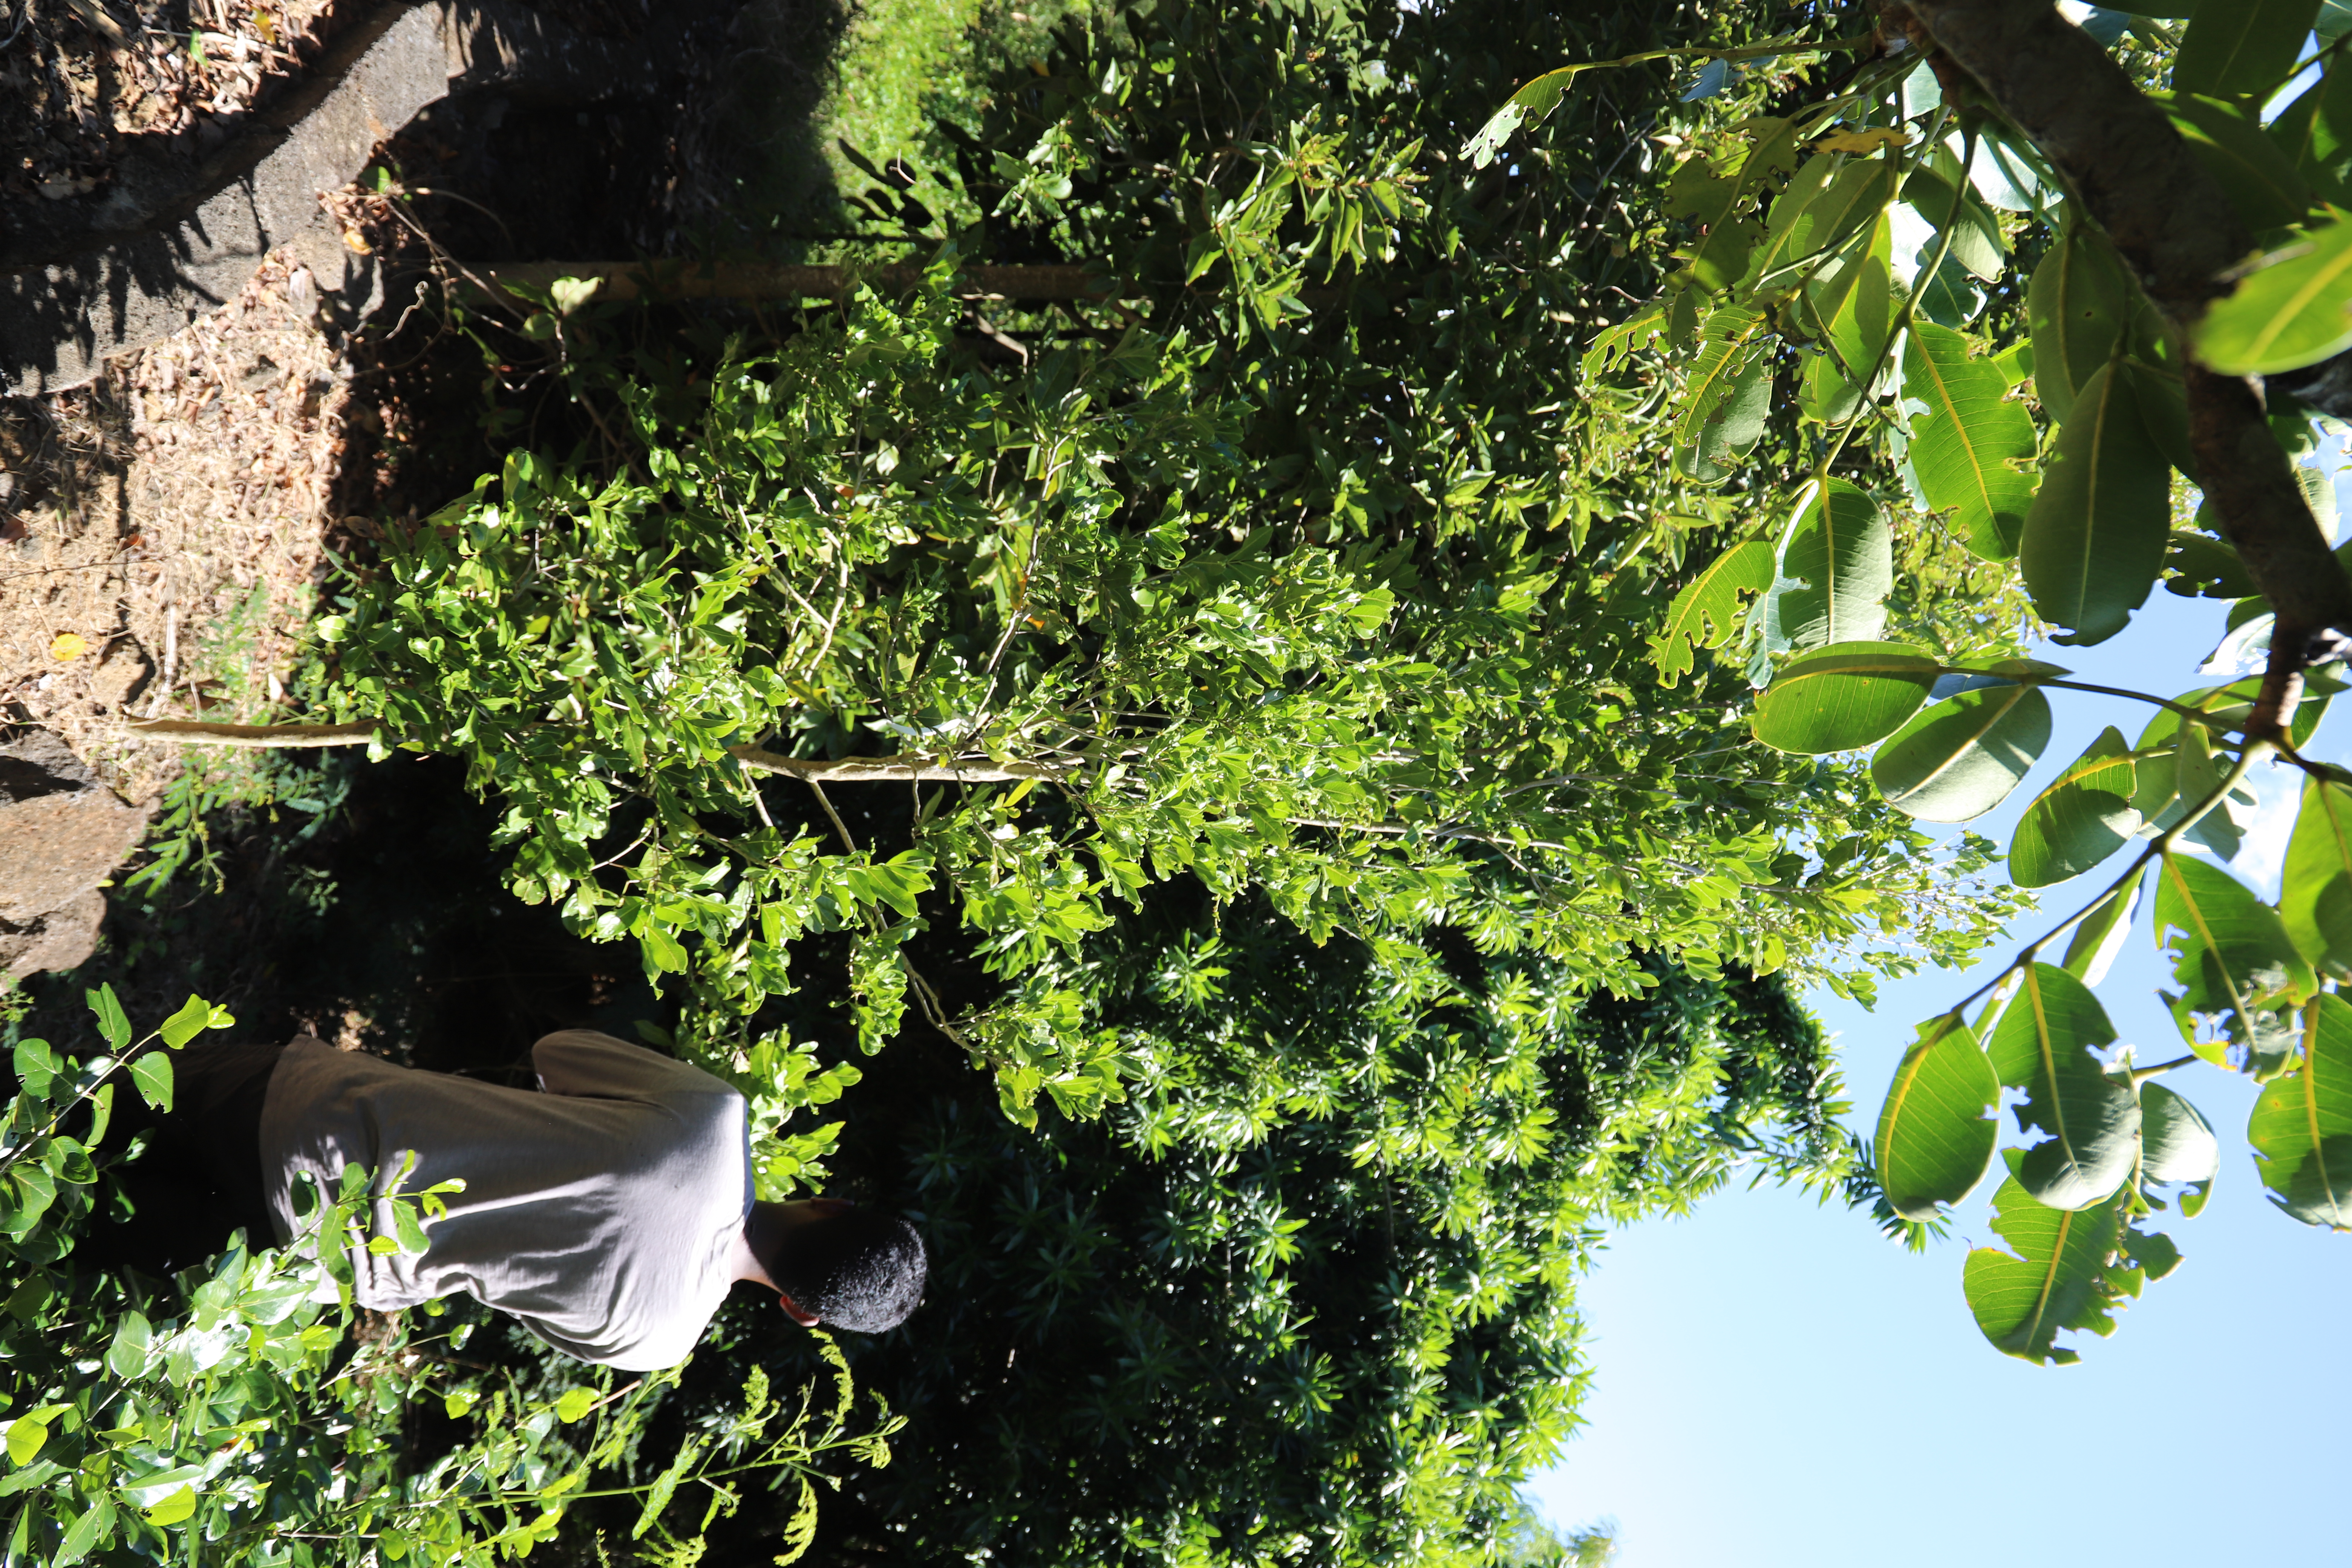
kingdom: Plantae
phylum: Tracheophyta
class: Magnoliopsida
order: Sapindales
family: Sapindaceae
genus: Molinaea
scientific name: Molinaea
